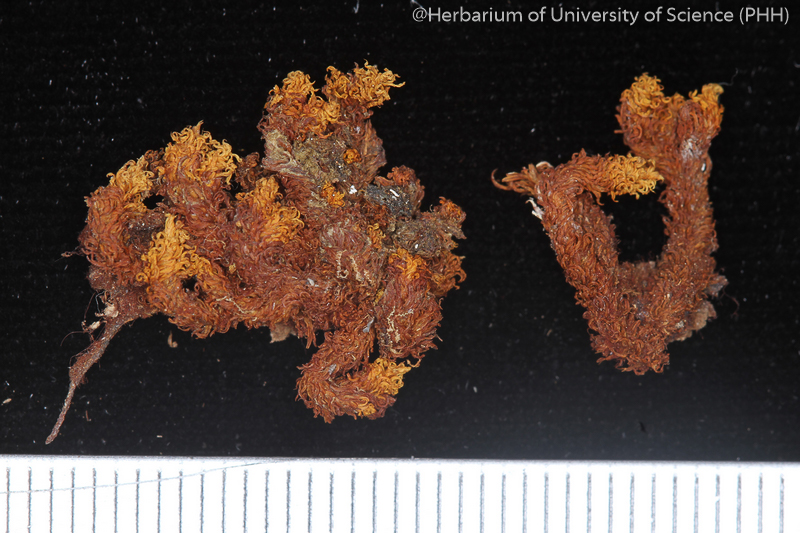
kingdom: Plantae
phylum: Bryophyta
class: Bryopsida
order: Orthotrichales
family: Orthotrichaceae
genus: Macromitrium
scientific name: Macromitrium lorifolium
